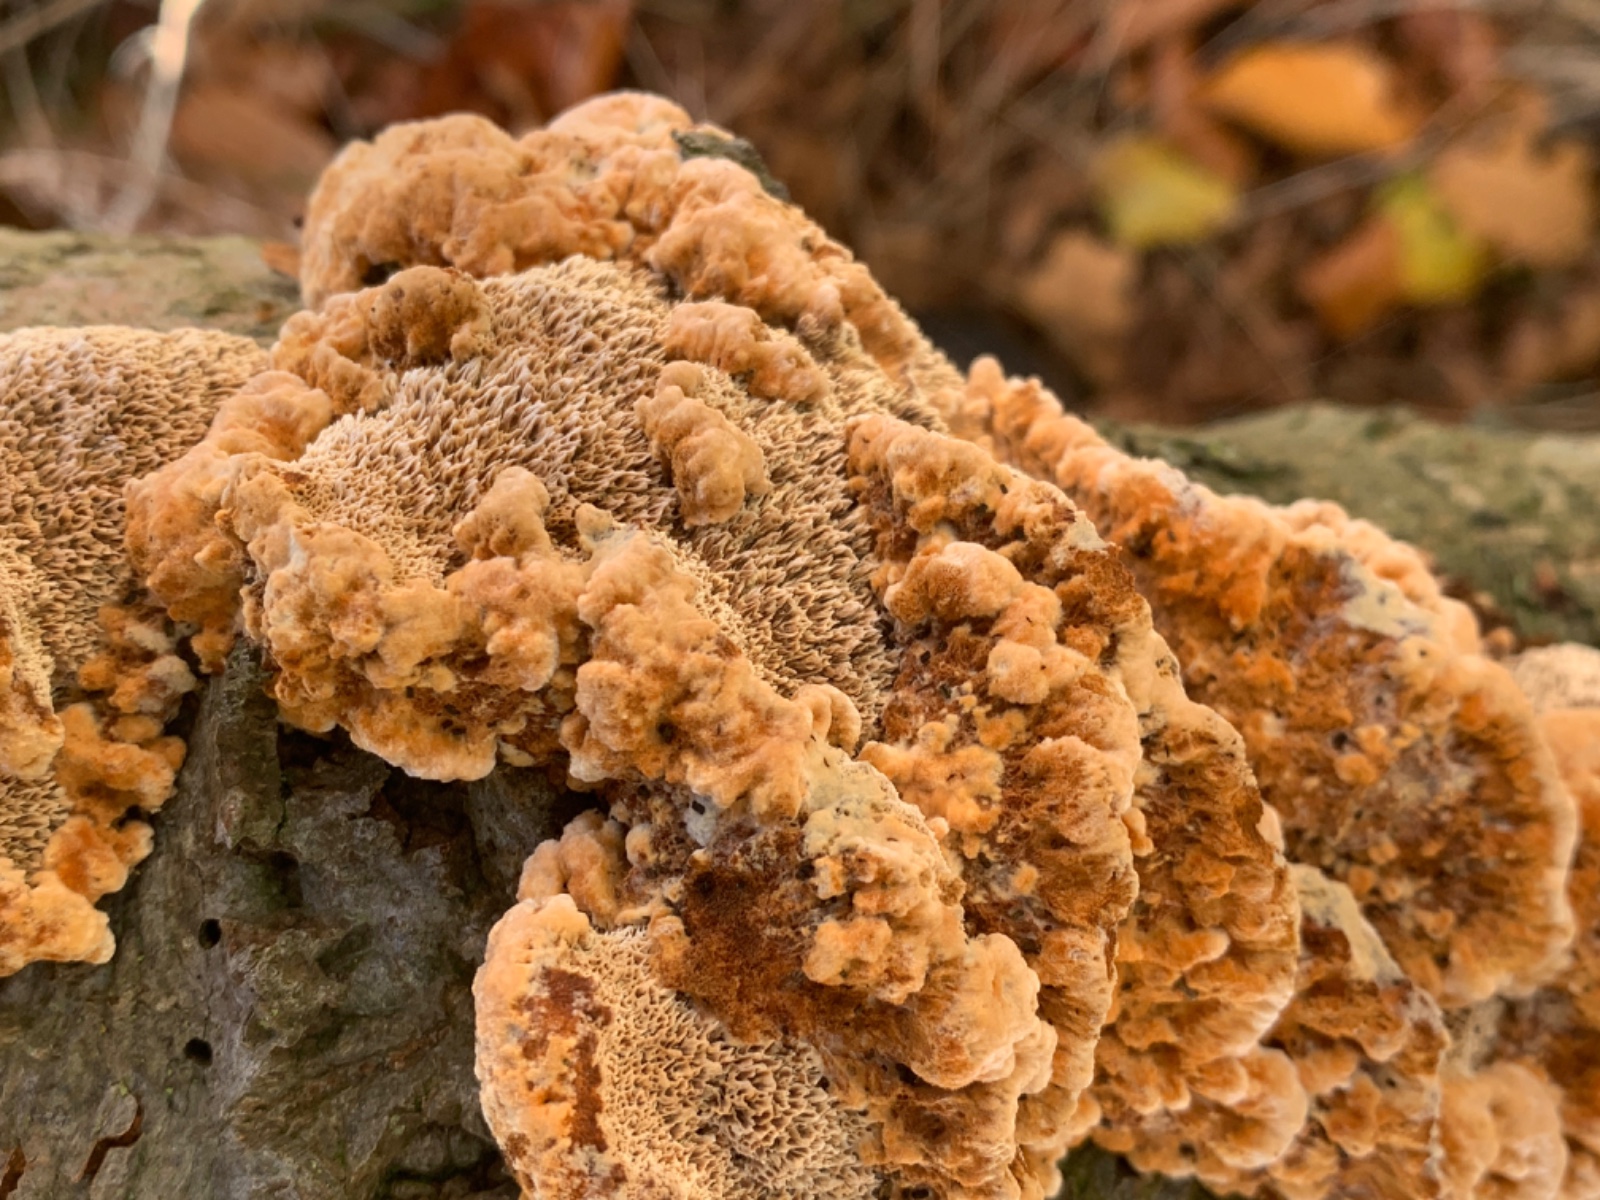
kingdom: Fungi
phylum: Basidiomycota
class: Agaricomycetes
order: Hymenochaetales
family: Hymenochaetaceae
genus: Mensularia
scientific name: Mensularia nodulosa
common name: bøge-spejlporesvamp
